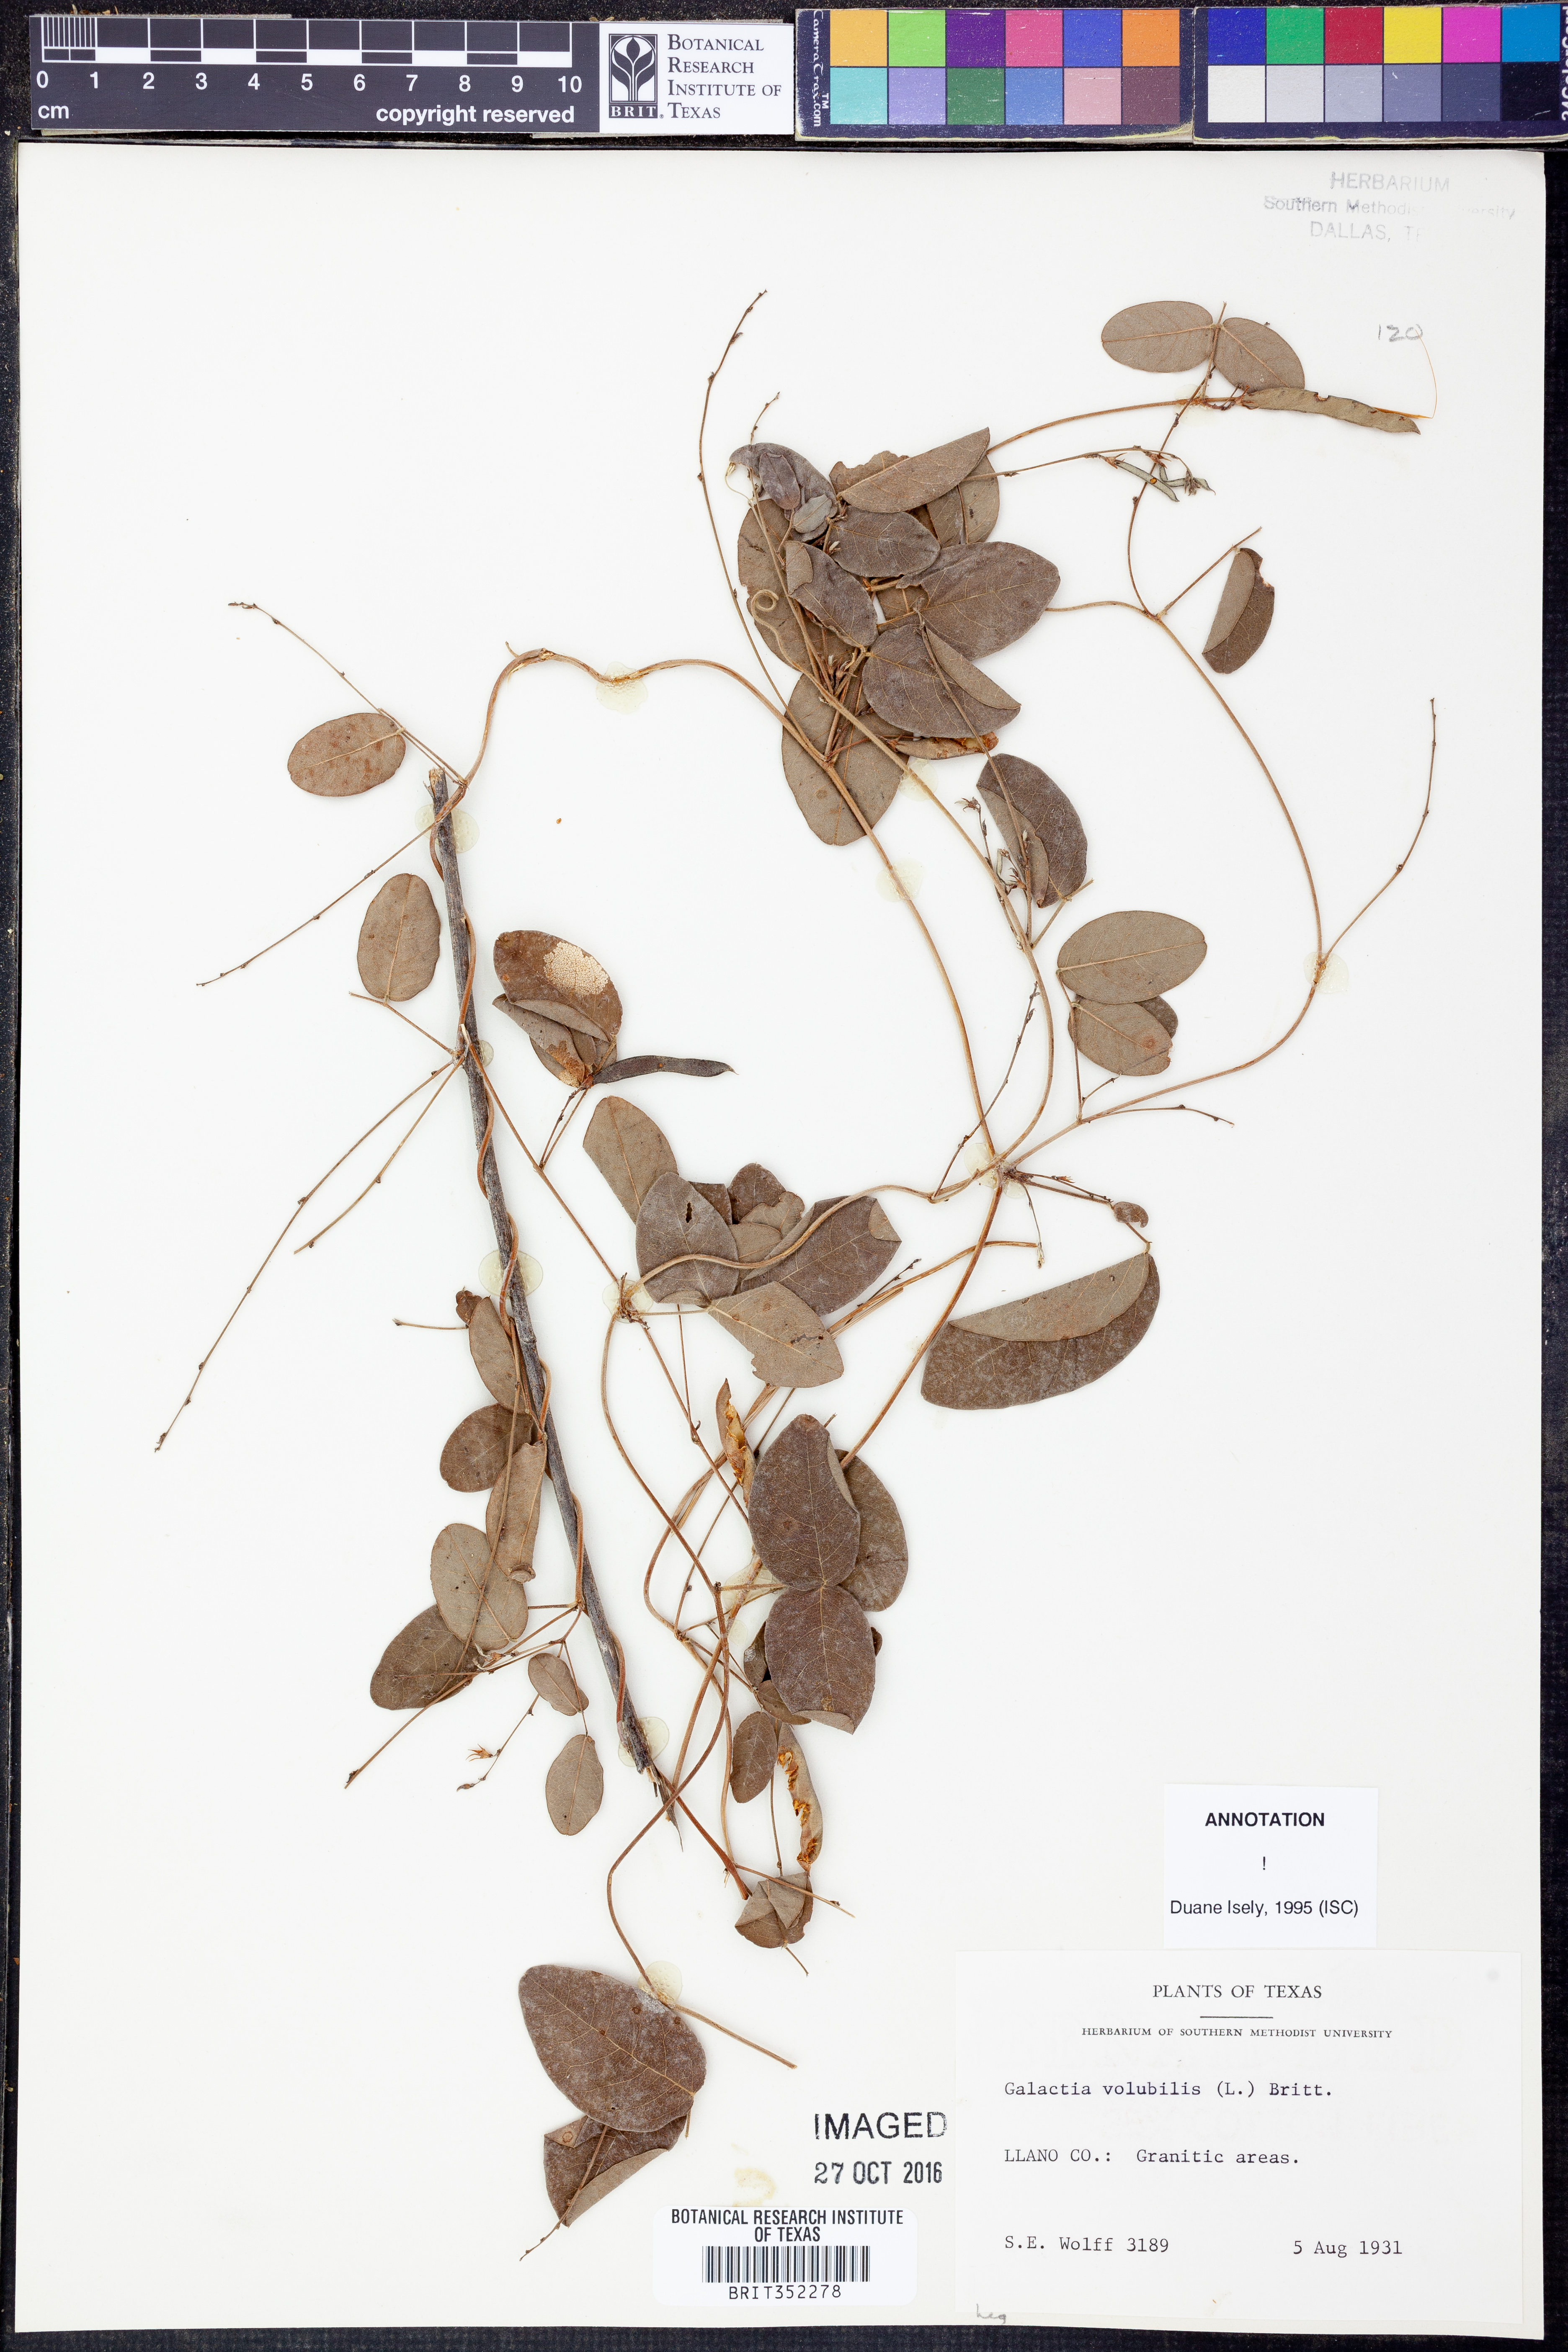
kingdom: Plantae
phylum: Tracheophyta
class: Magnoliopsida
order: Fabales
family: Fabaceae
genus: Galactia
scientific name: Galactia volubilis
